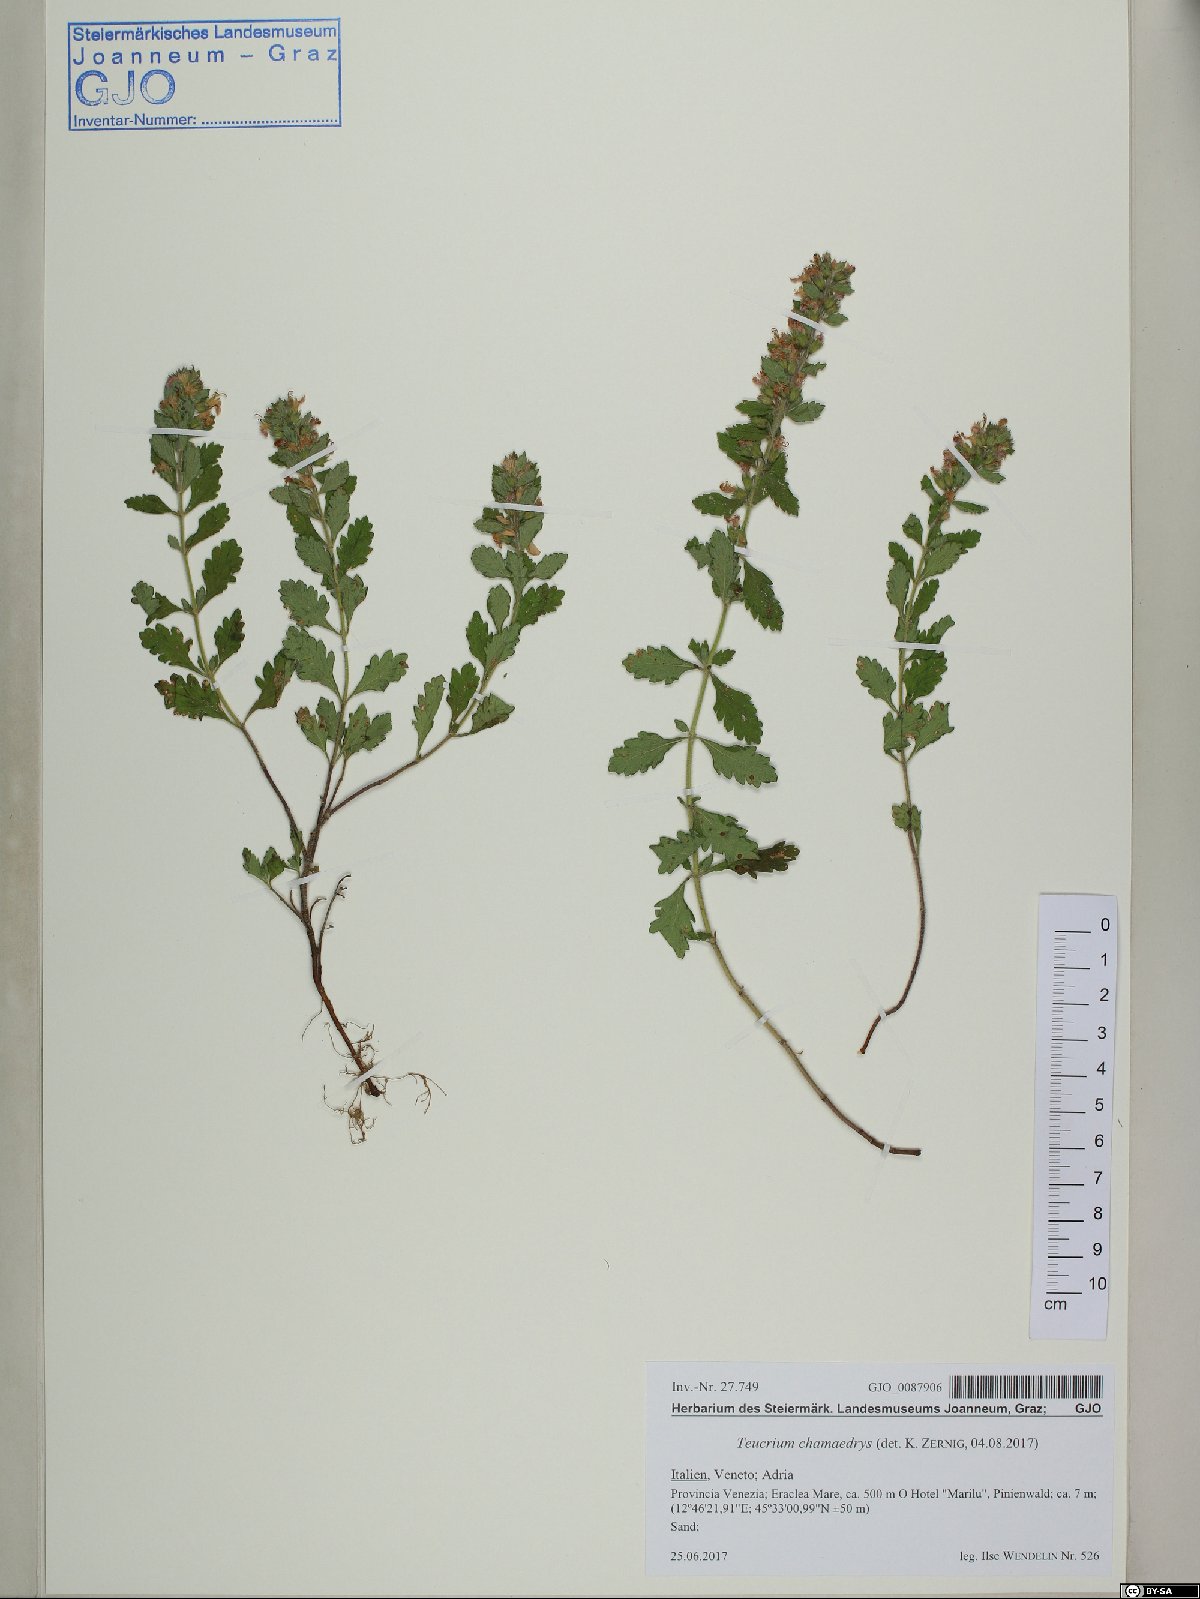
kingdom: Plantae
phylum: Tracheophyta
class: Magnoliopsida
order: Lamiales
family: Lamiaceae
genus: Teucrium
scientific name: Teucrium chamaedrys
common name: Wall germander
